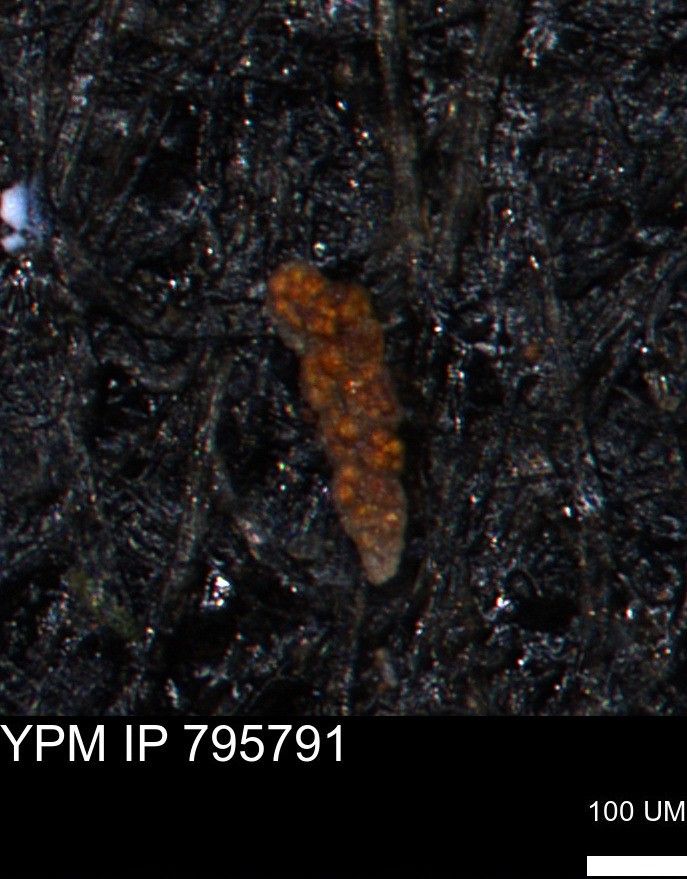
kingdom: Chromista
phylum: Foraminifera
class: Globothalamea
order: Lituolida
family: Verneuilinidae
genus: Verneuilina
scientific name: Verneuilina canadensis
